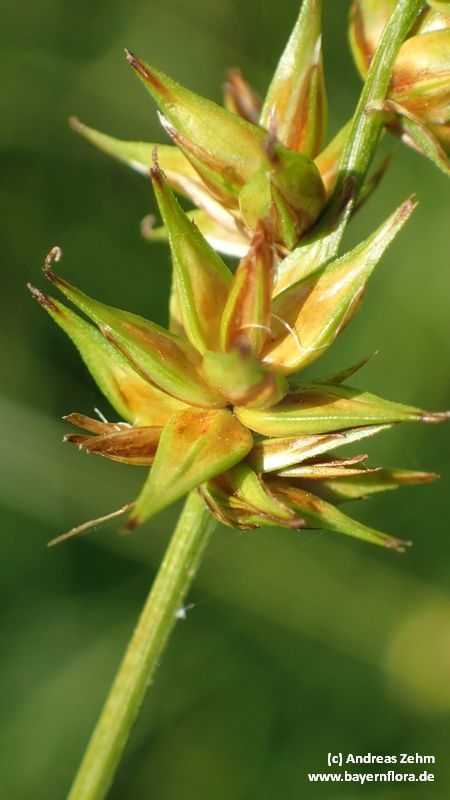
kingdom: Plantae
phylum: Tracheophyta
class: Liliopsida
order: Poales
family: Cyperaceae
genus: Carex
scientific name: Carex
